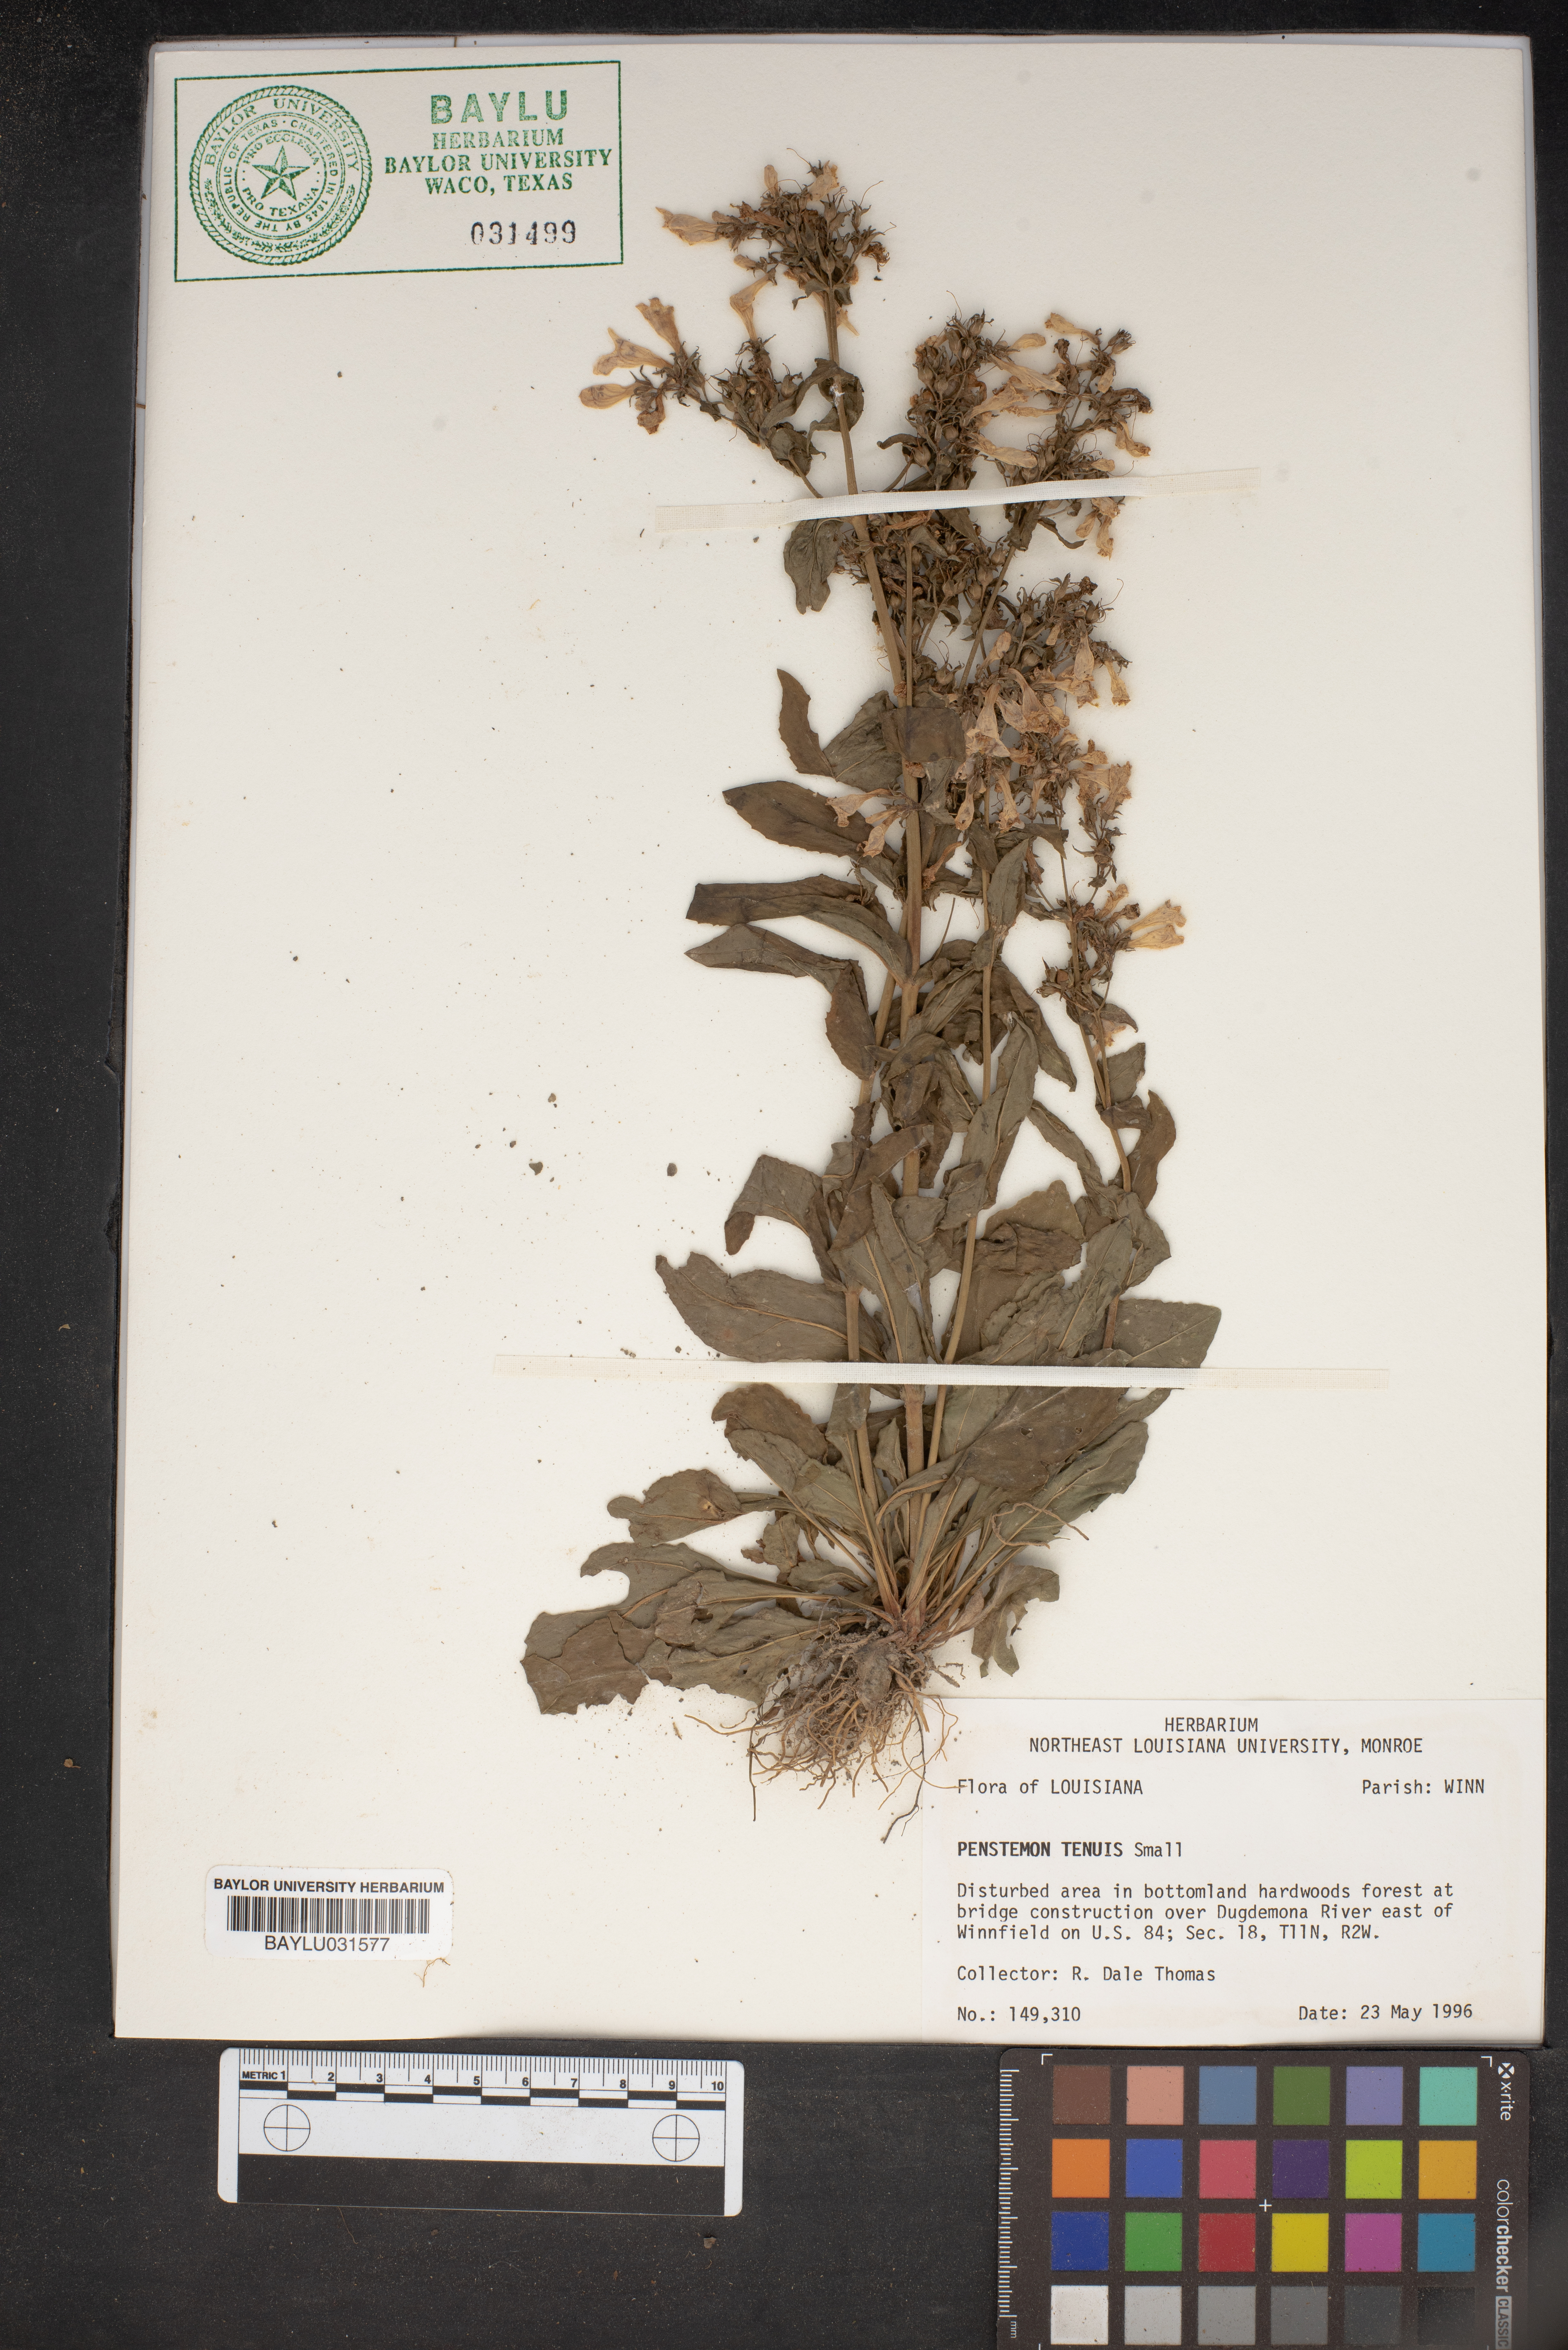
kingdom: Plantae
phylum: Tracheophyta
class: Magnoliopsida
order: Lamiales
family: Plantaginaceae
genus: Penstemon
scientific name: Penstemon tenuis
